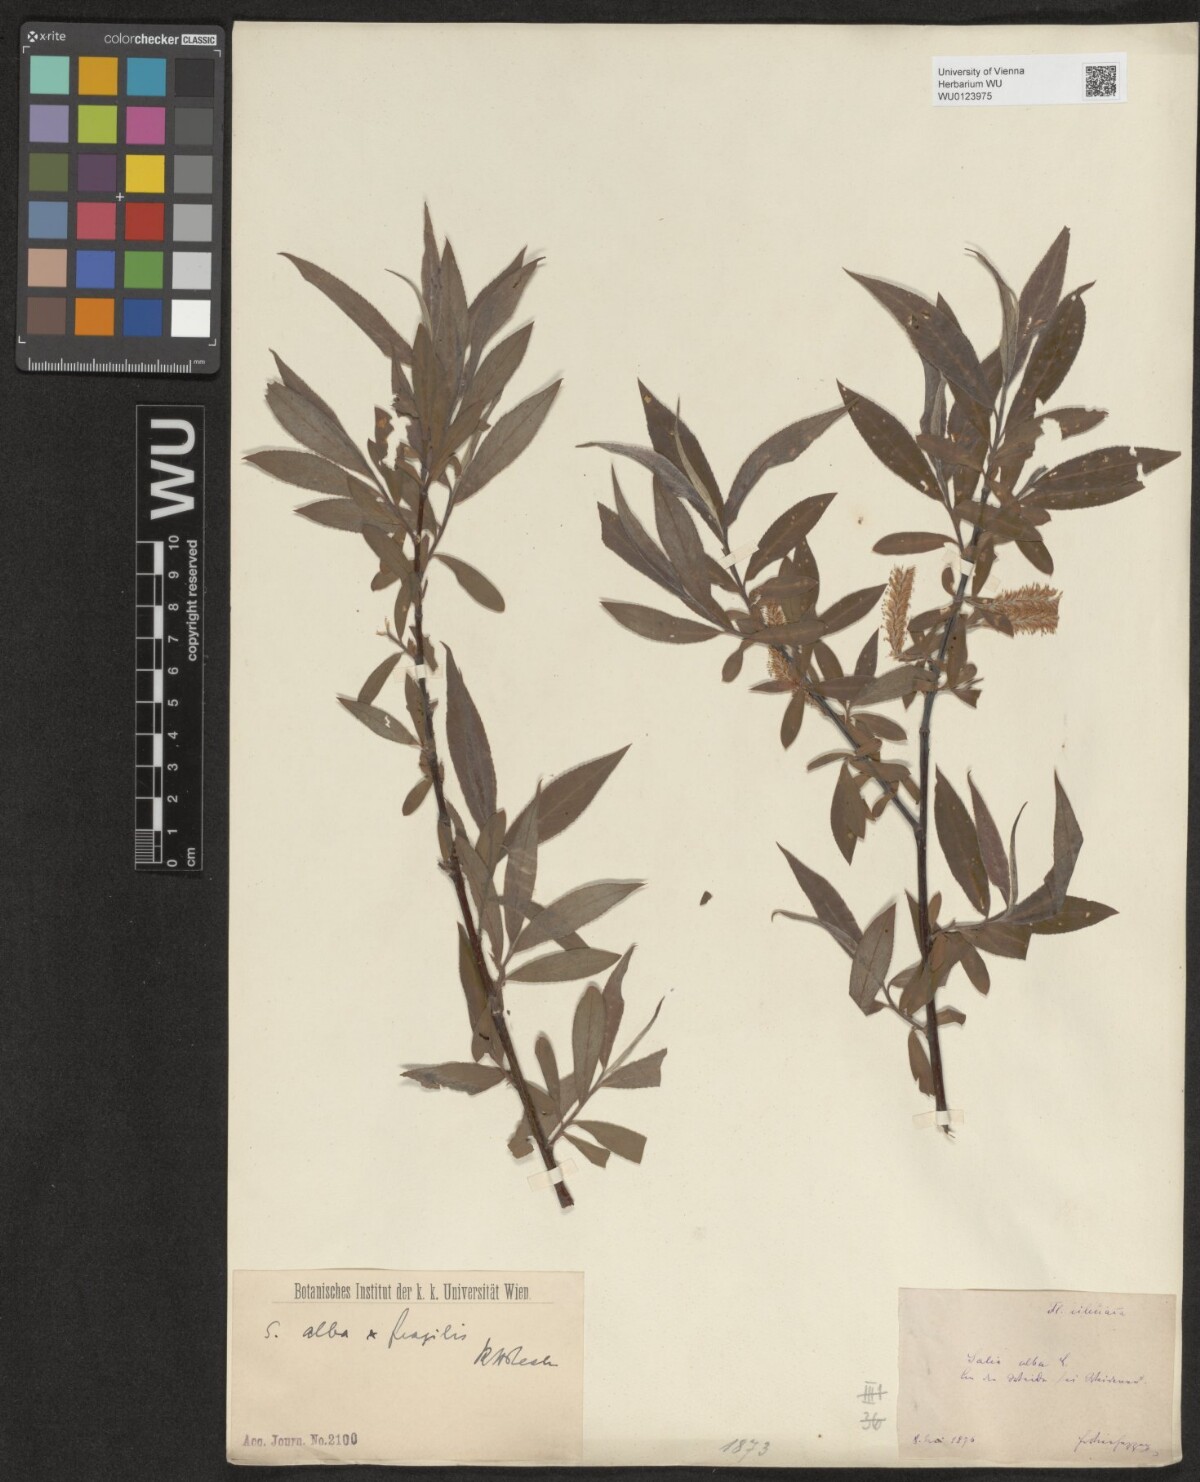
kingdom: Plantae
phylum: Tracheophyta
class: Magnoliopsida
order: Malpighiales
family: Salicaceae
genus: Salix
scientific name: Salix alba
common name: White willow
